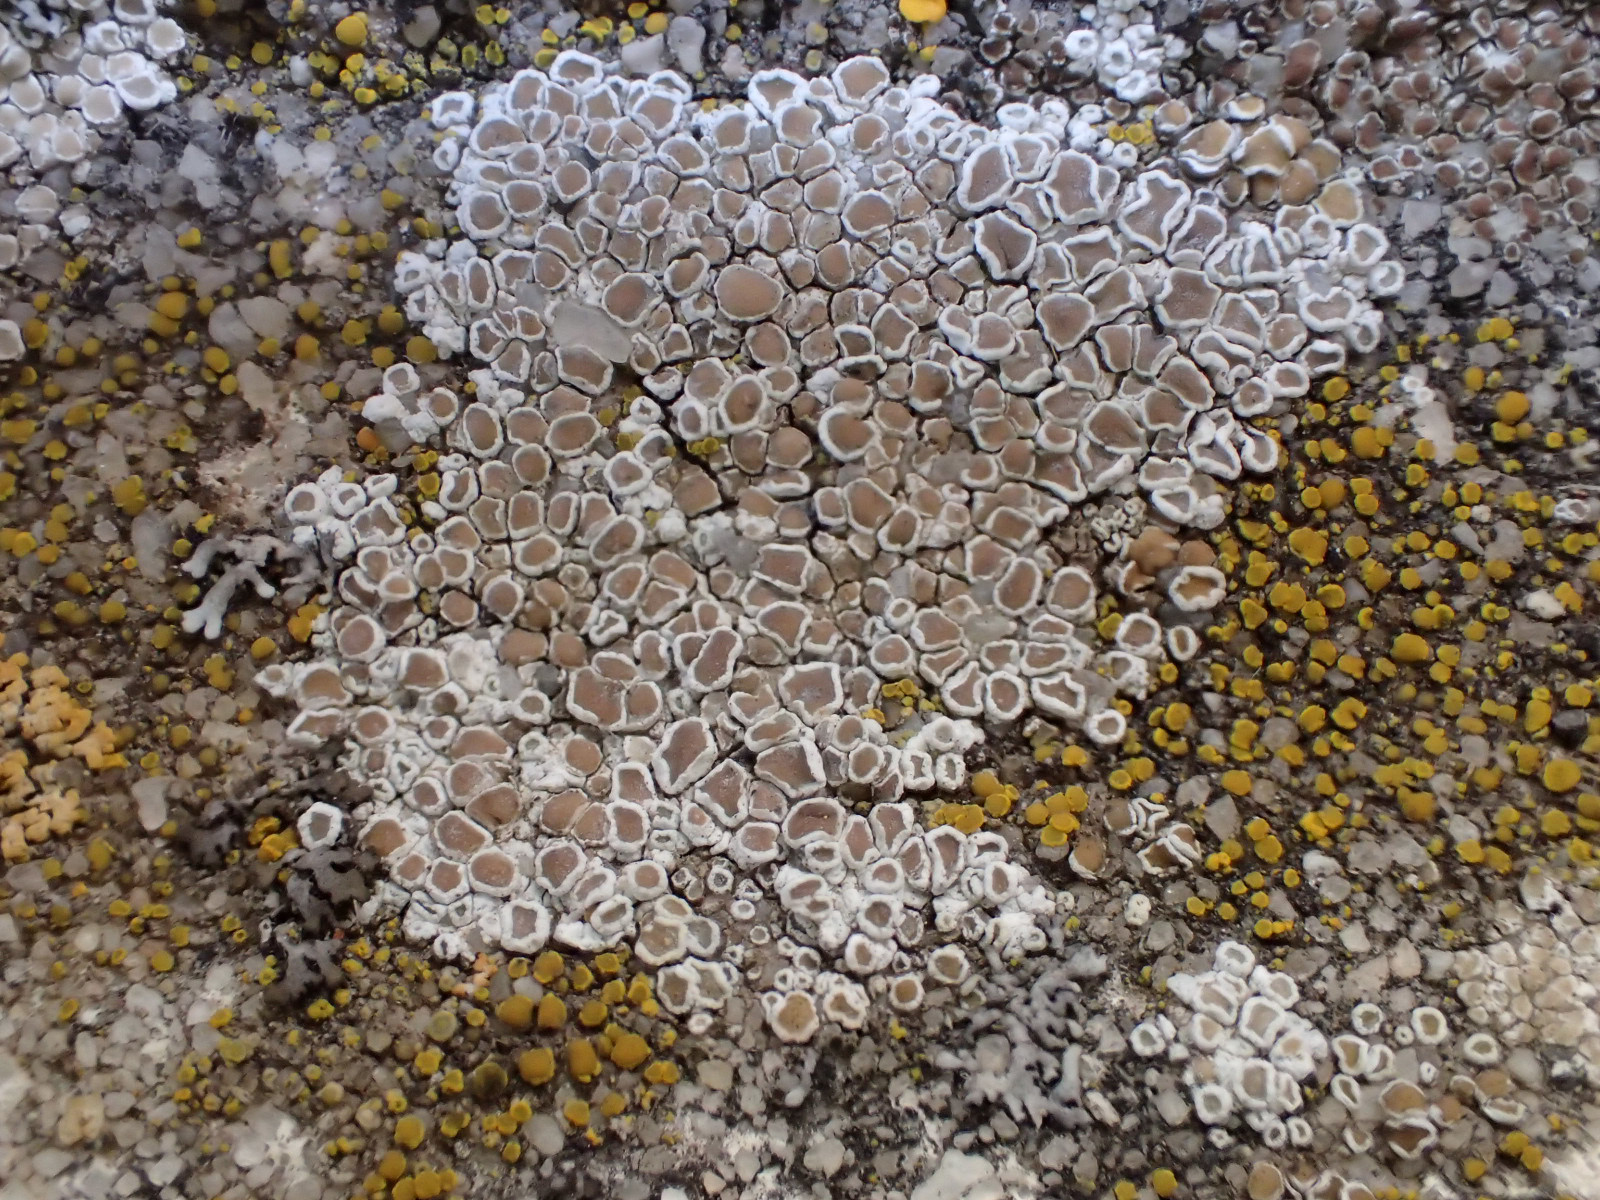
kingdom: Fungi
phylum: Ascomycota
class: Lecanoromycetes
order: Lecanorales
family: Lecanoraceae
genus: Polyozosia
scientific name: Polyozosia albescens
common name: cement-kantskivelav
